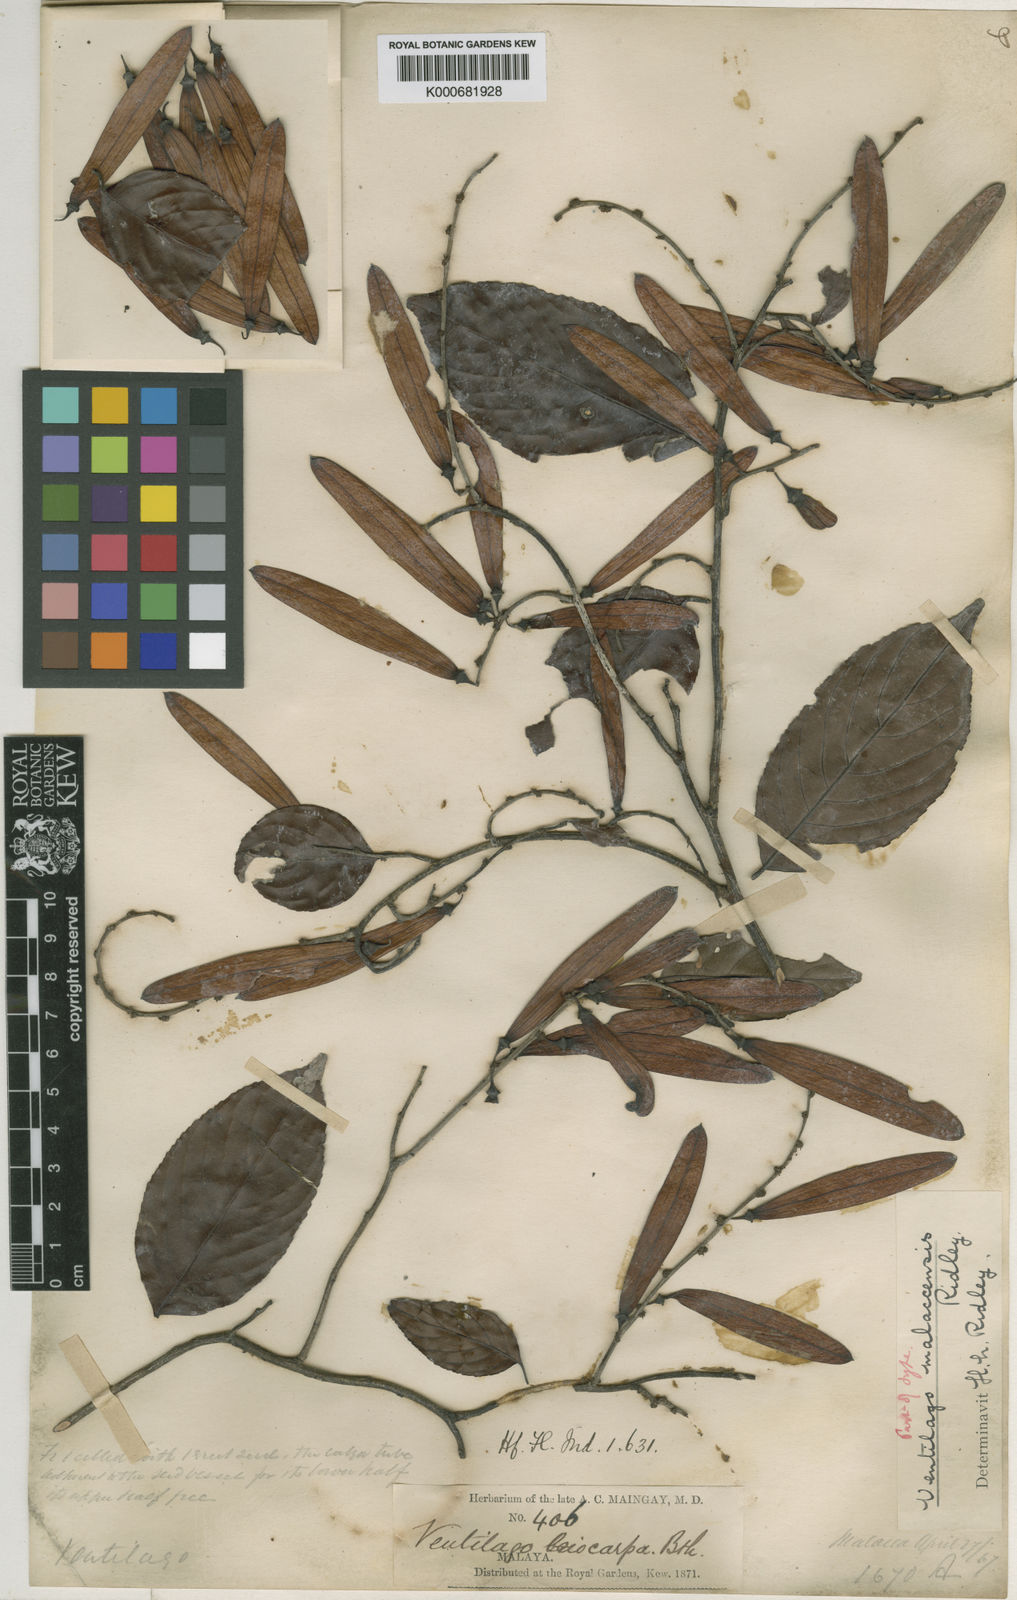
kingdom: Plantae
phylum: Tracheophyta
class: Magnoliopsida
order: Rosales
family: Rhamnaceae
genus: Ventilago
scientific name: Ventilago malaccensis
